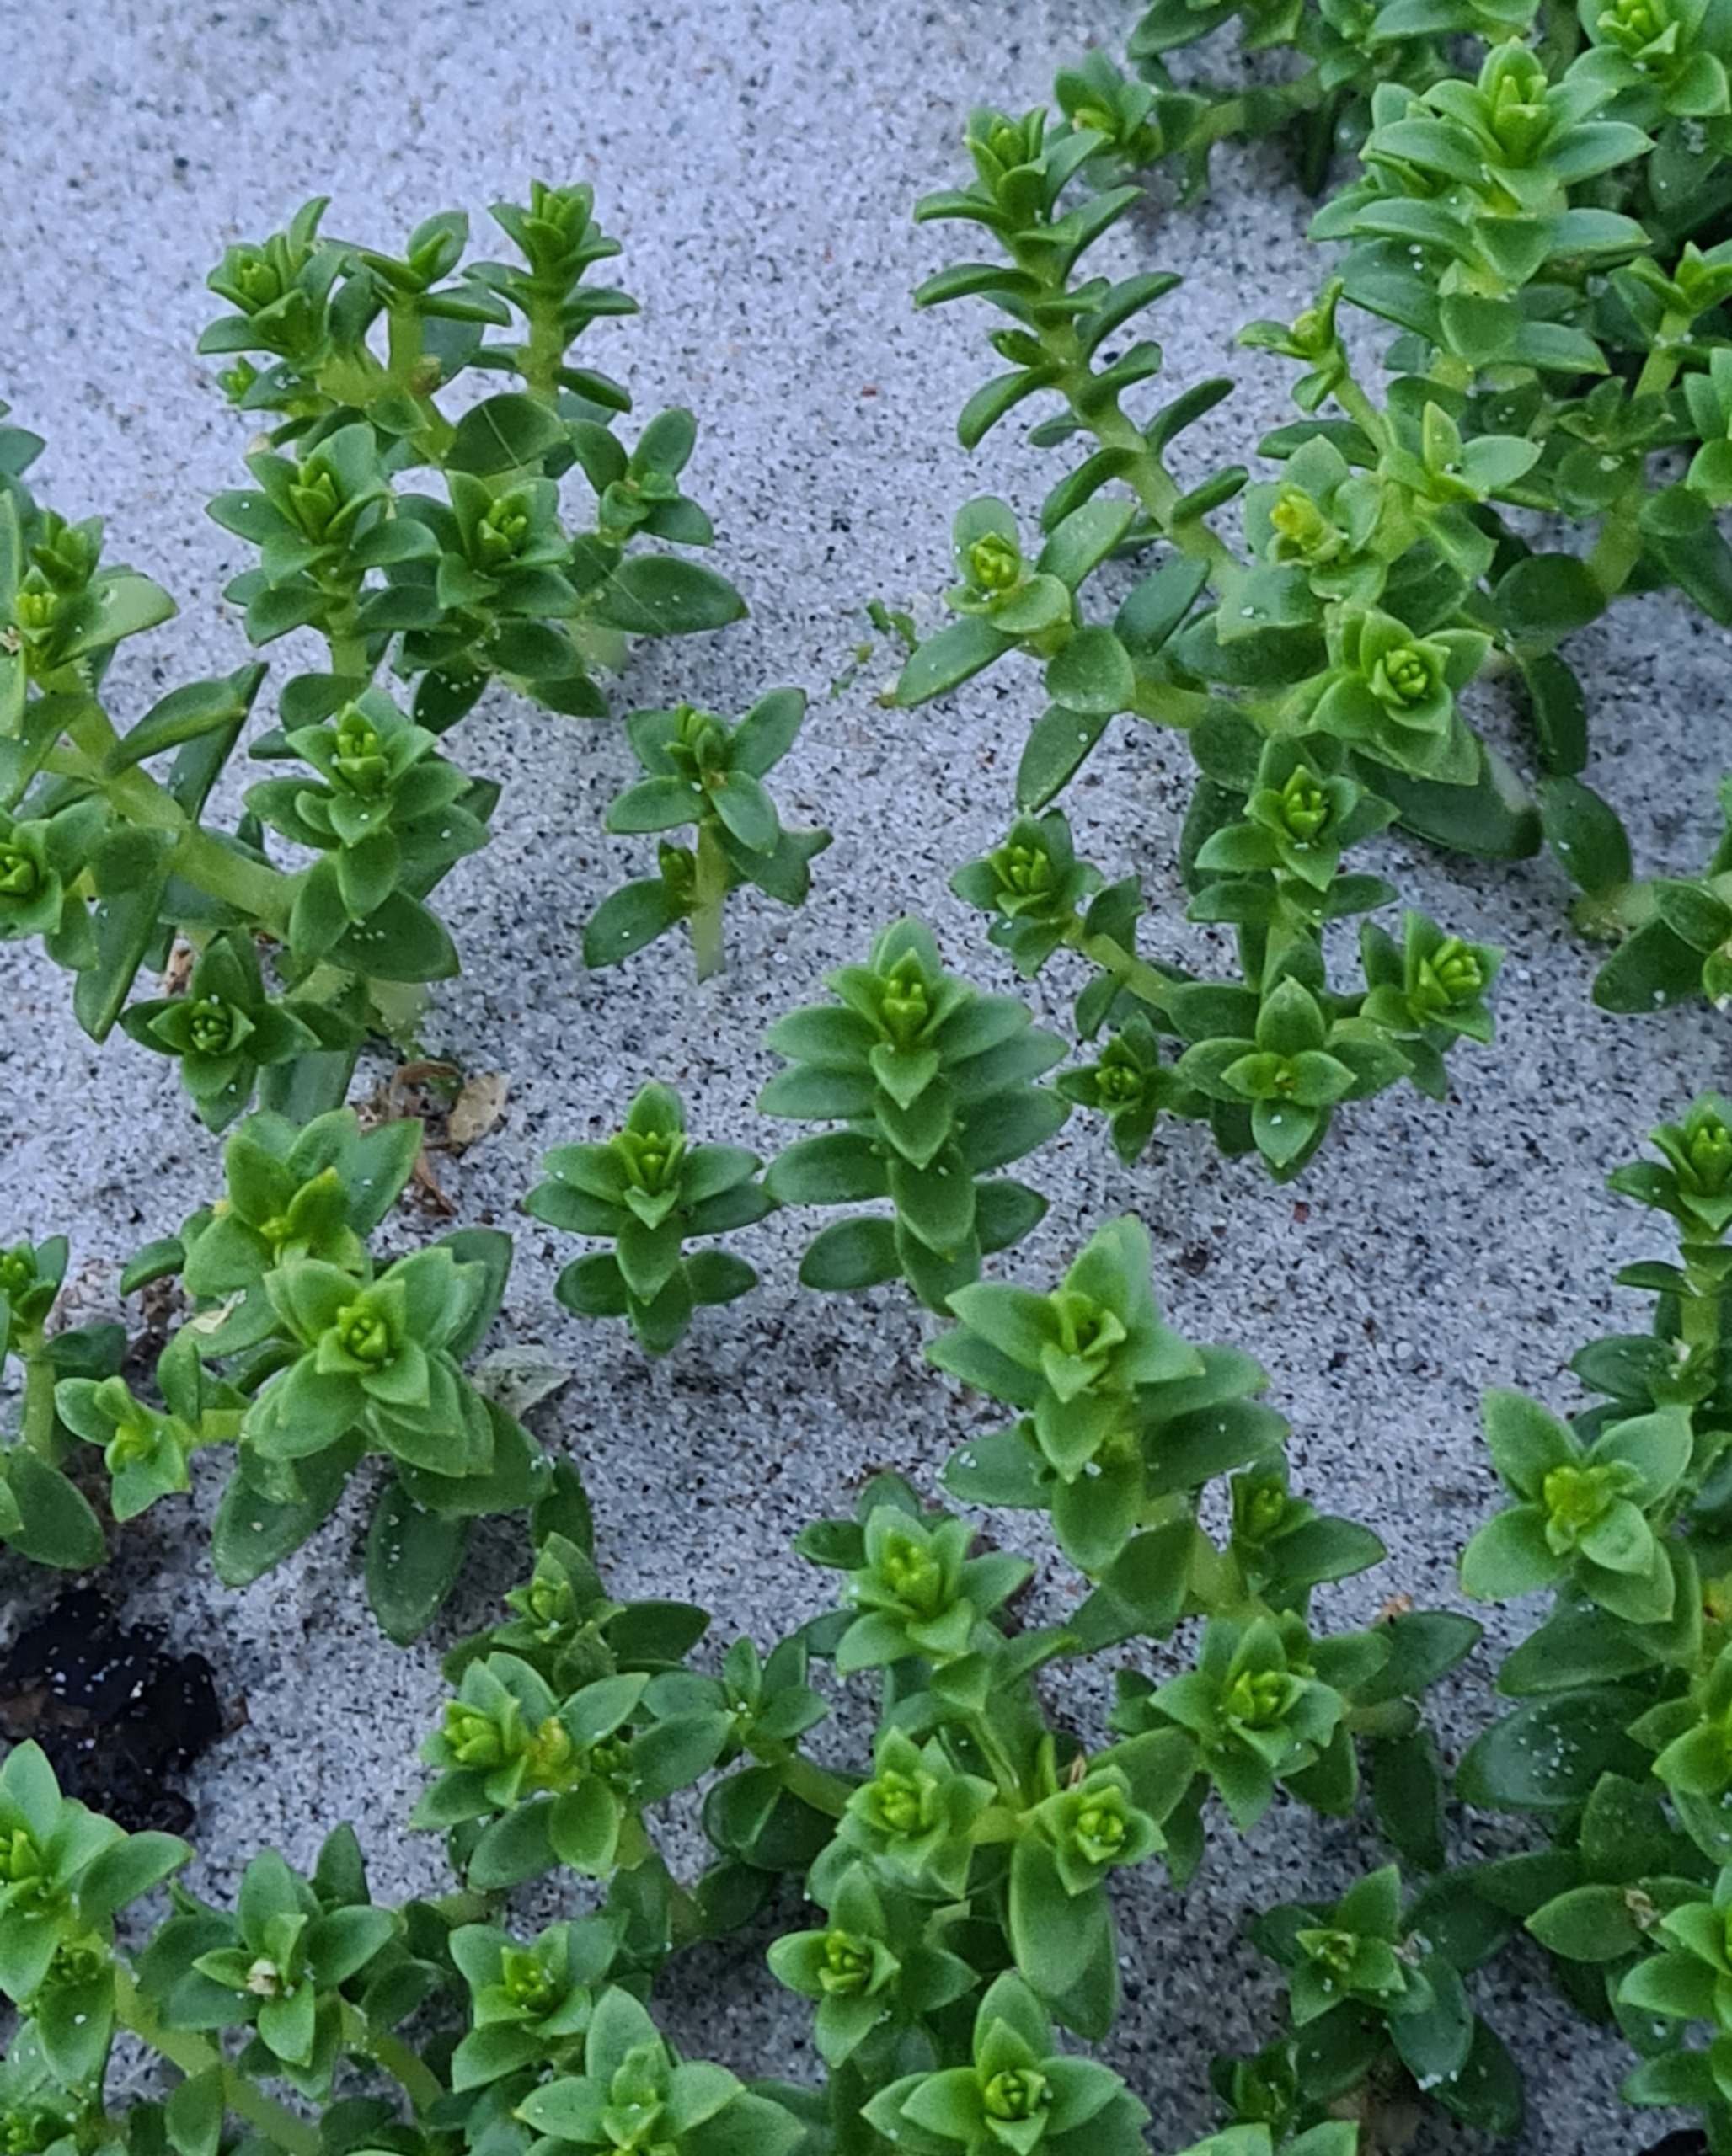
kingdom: Plantae
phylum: Tracheophyta
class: Magnoliopsida
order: Caryophyllales
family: Caryophyllaceae
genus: Honckenya
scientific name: Honckenya peploides
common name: Strandarve
